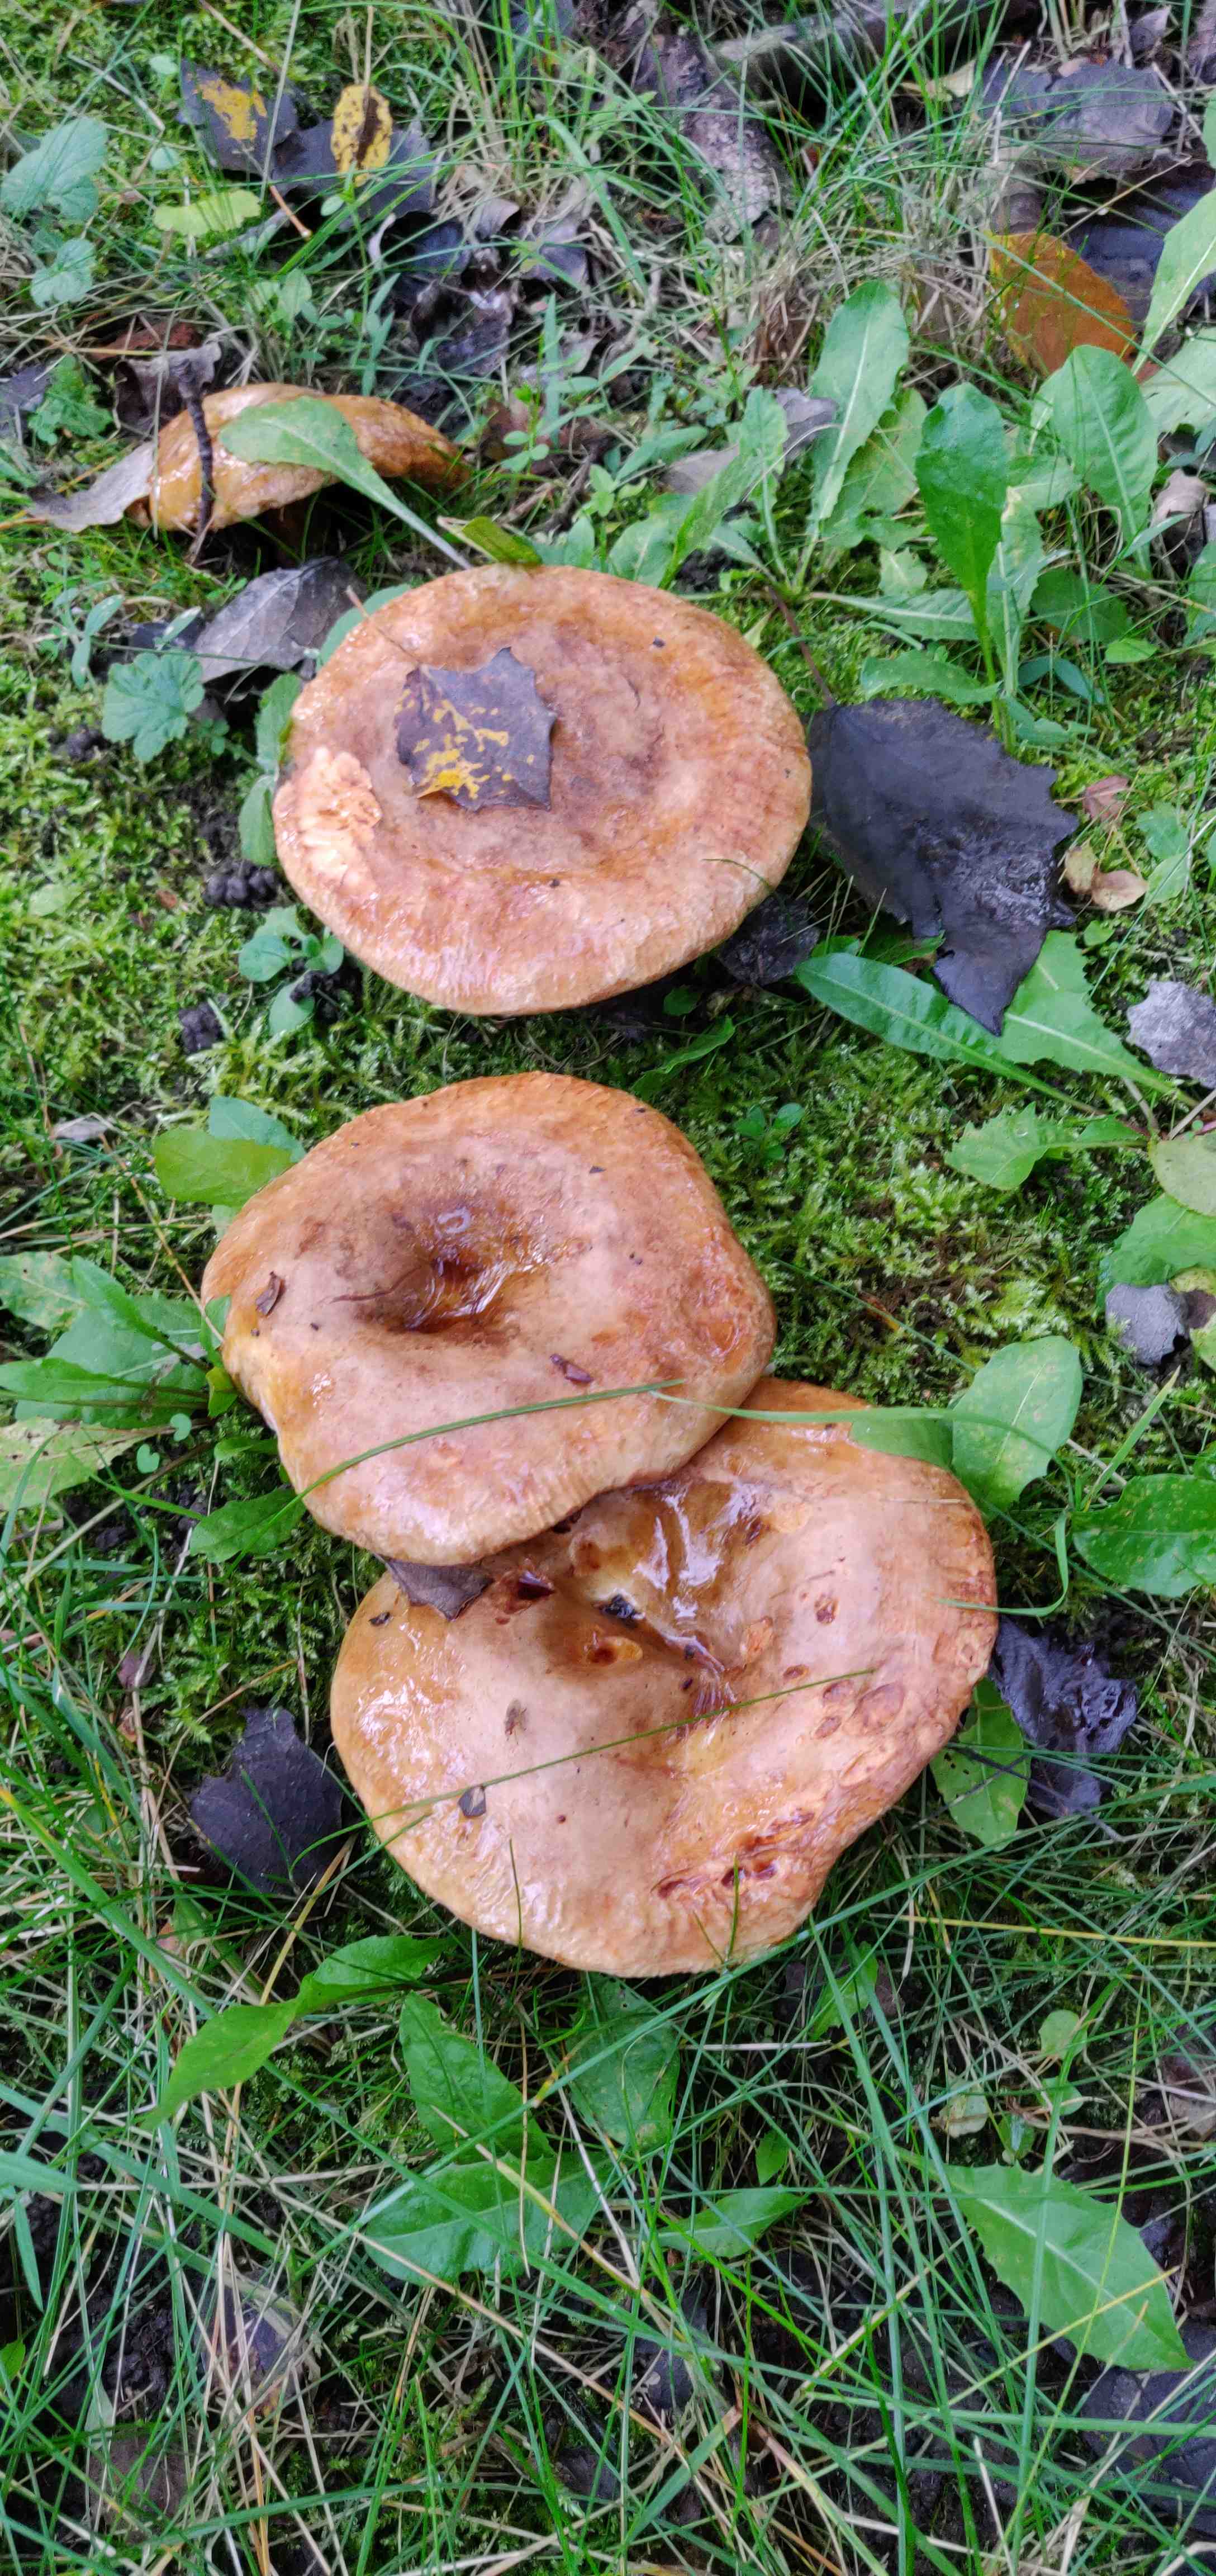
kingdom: Fungi
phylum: Basidiomycota
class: Agaricomycetes
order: Boletales
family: Paxillaceae
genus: Paxillus
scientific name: Paxillus
